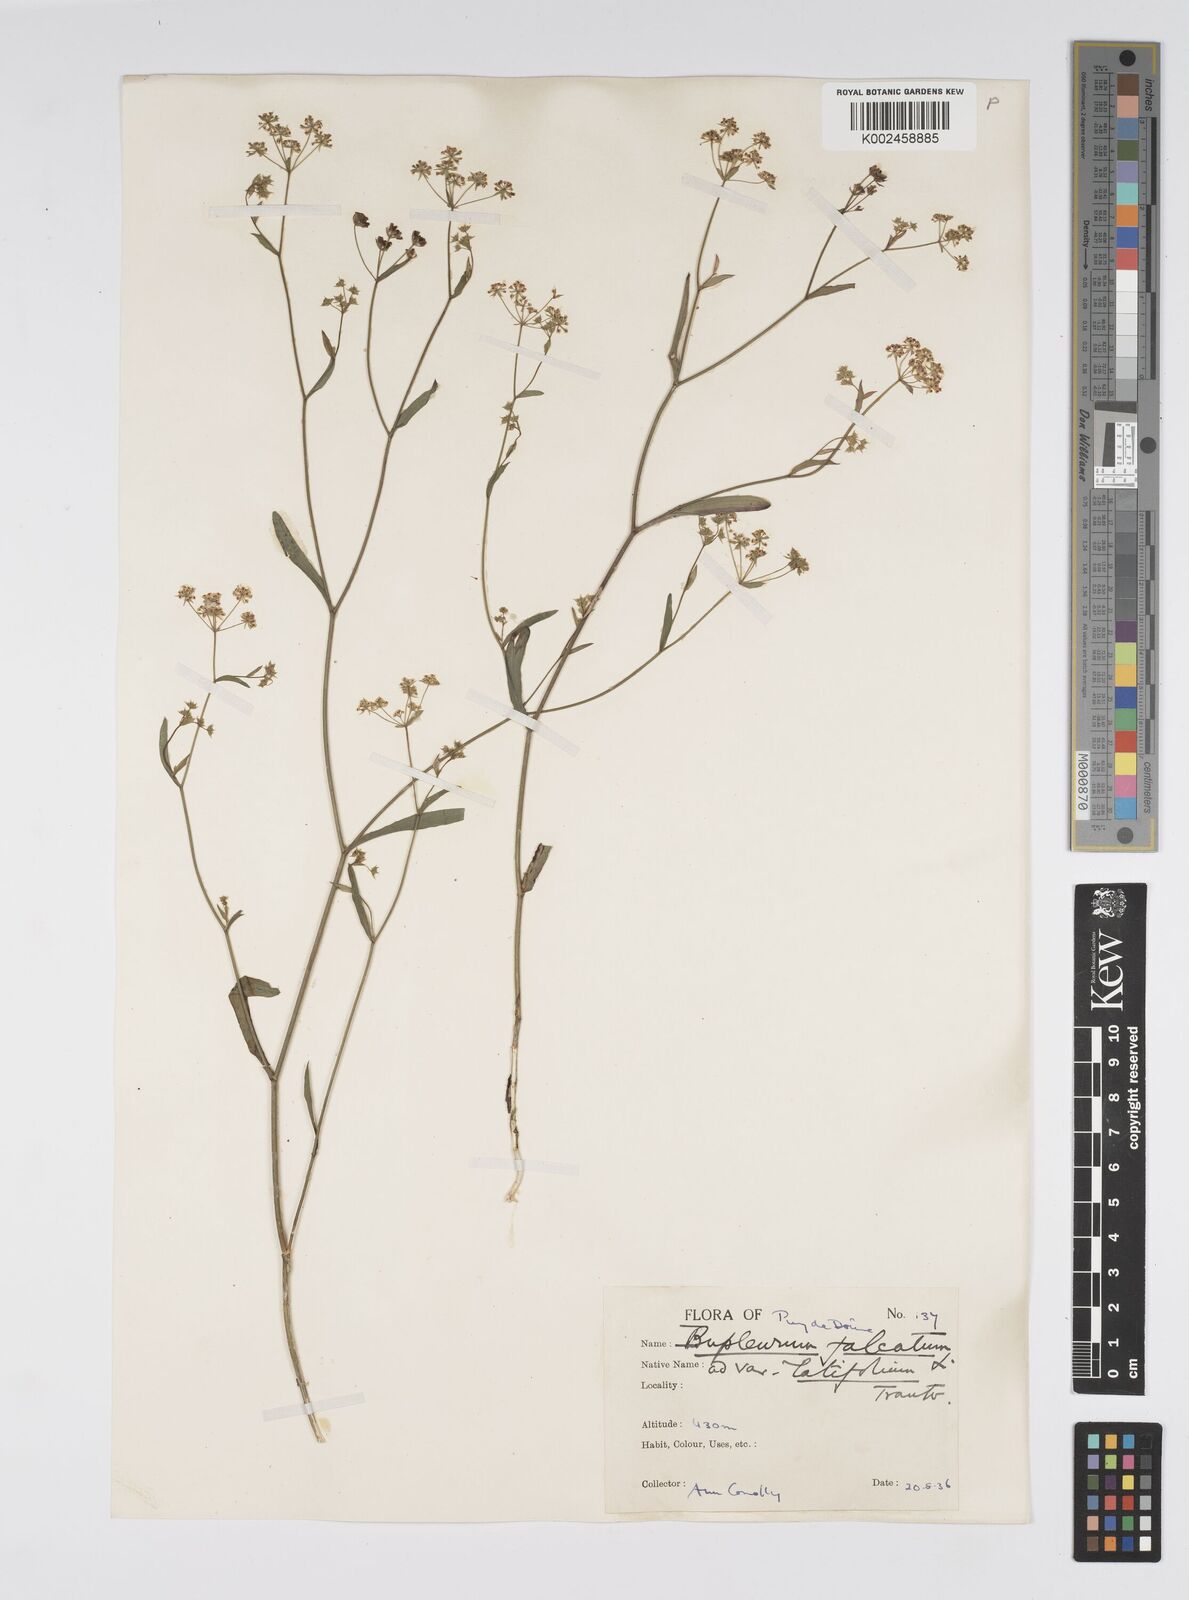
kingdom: Plantae
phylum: Tracheophyta
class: Magnoliopsida
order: Apiales
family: Apiaceae
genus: Bupleurum
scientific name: Bupleurum falcatum
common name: Sickle-leaved hare's-ear
